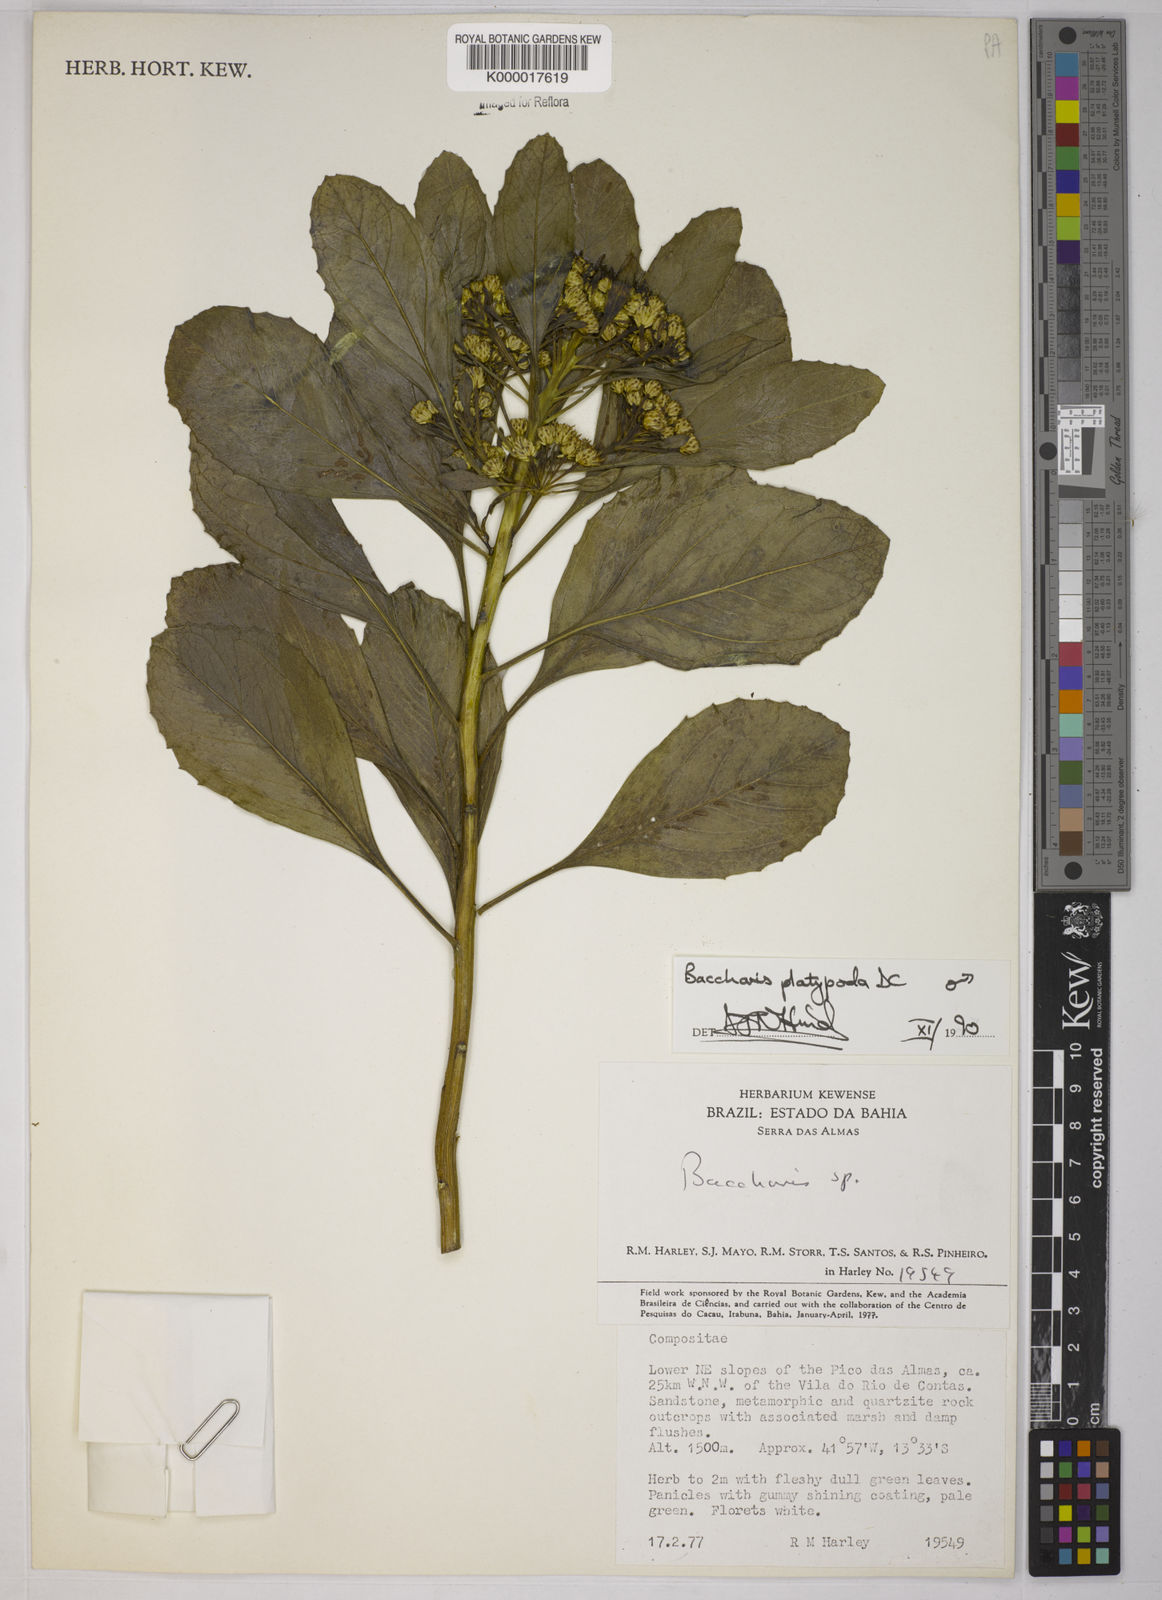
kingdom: Plantae
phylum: Tracheophyta
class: Magnoliopsida
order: Asterales
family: Asteraceae
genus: Baccharis
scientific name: Baccharis platypoda
